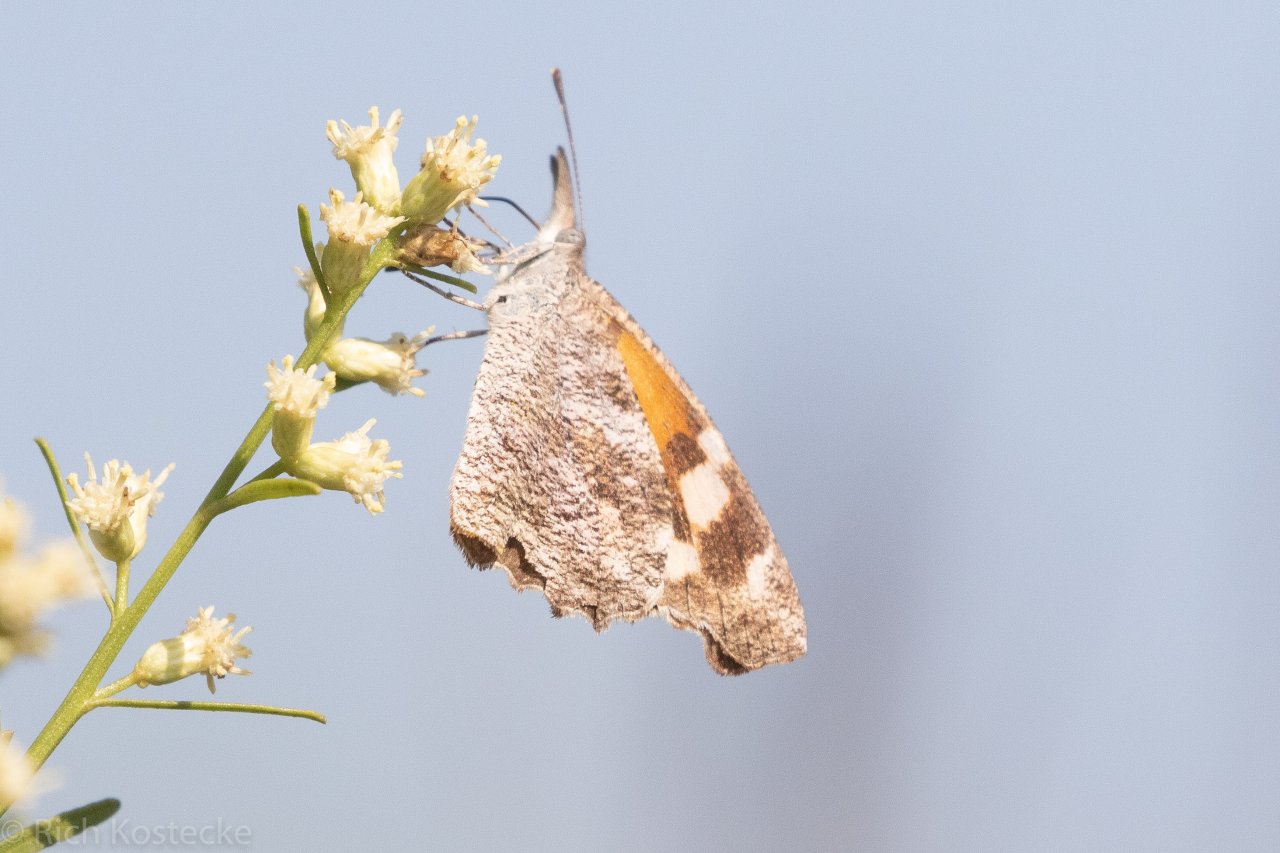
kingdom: Animalia
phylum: Arthropoda
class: Insecta
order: Lepidoptera
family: Nymphalidae
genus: Libytheana
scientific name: Libytheana carinenta
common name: American Snout
